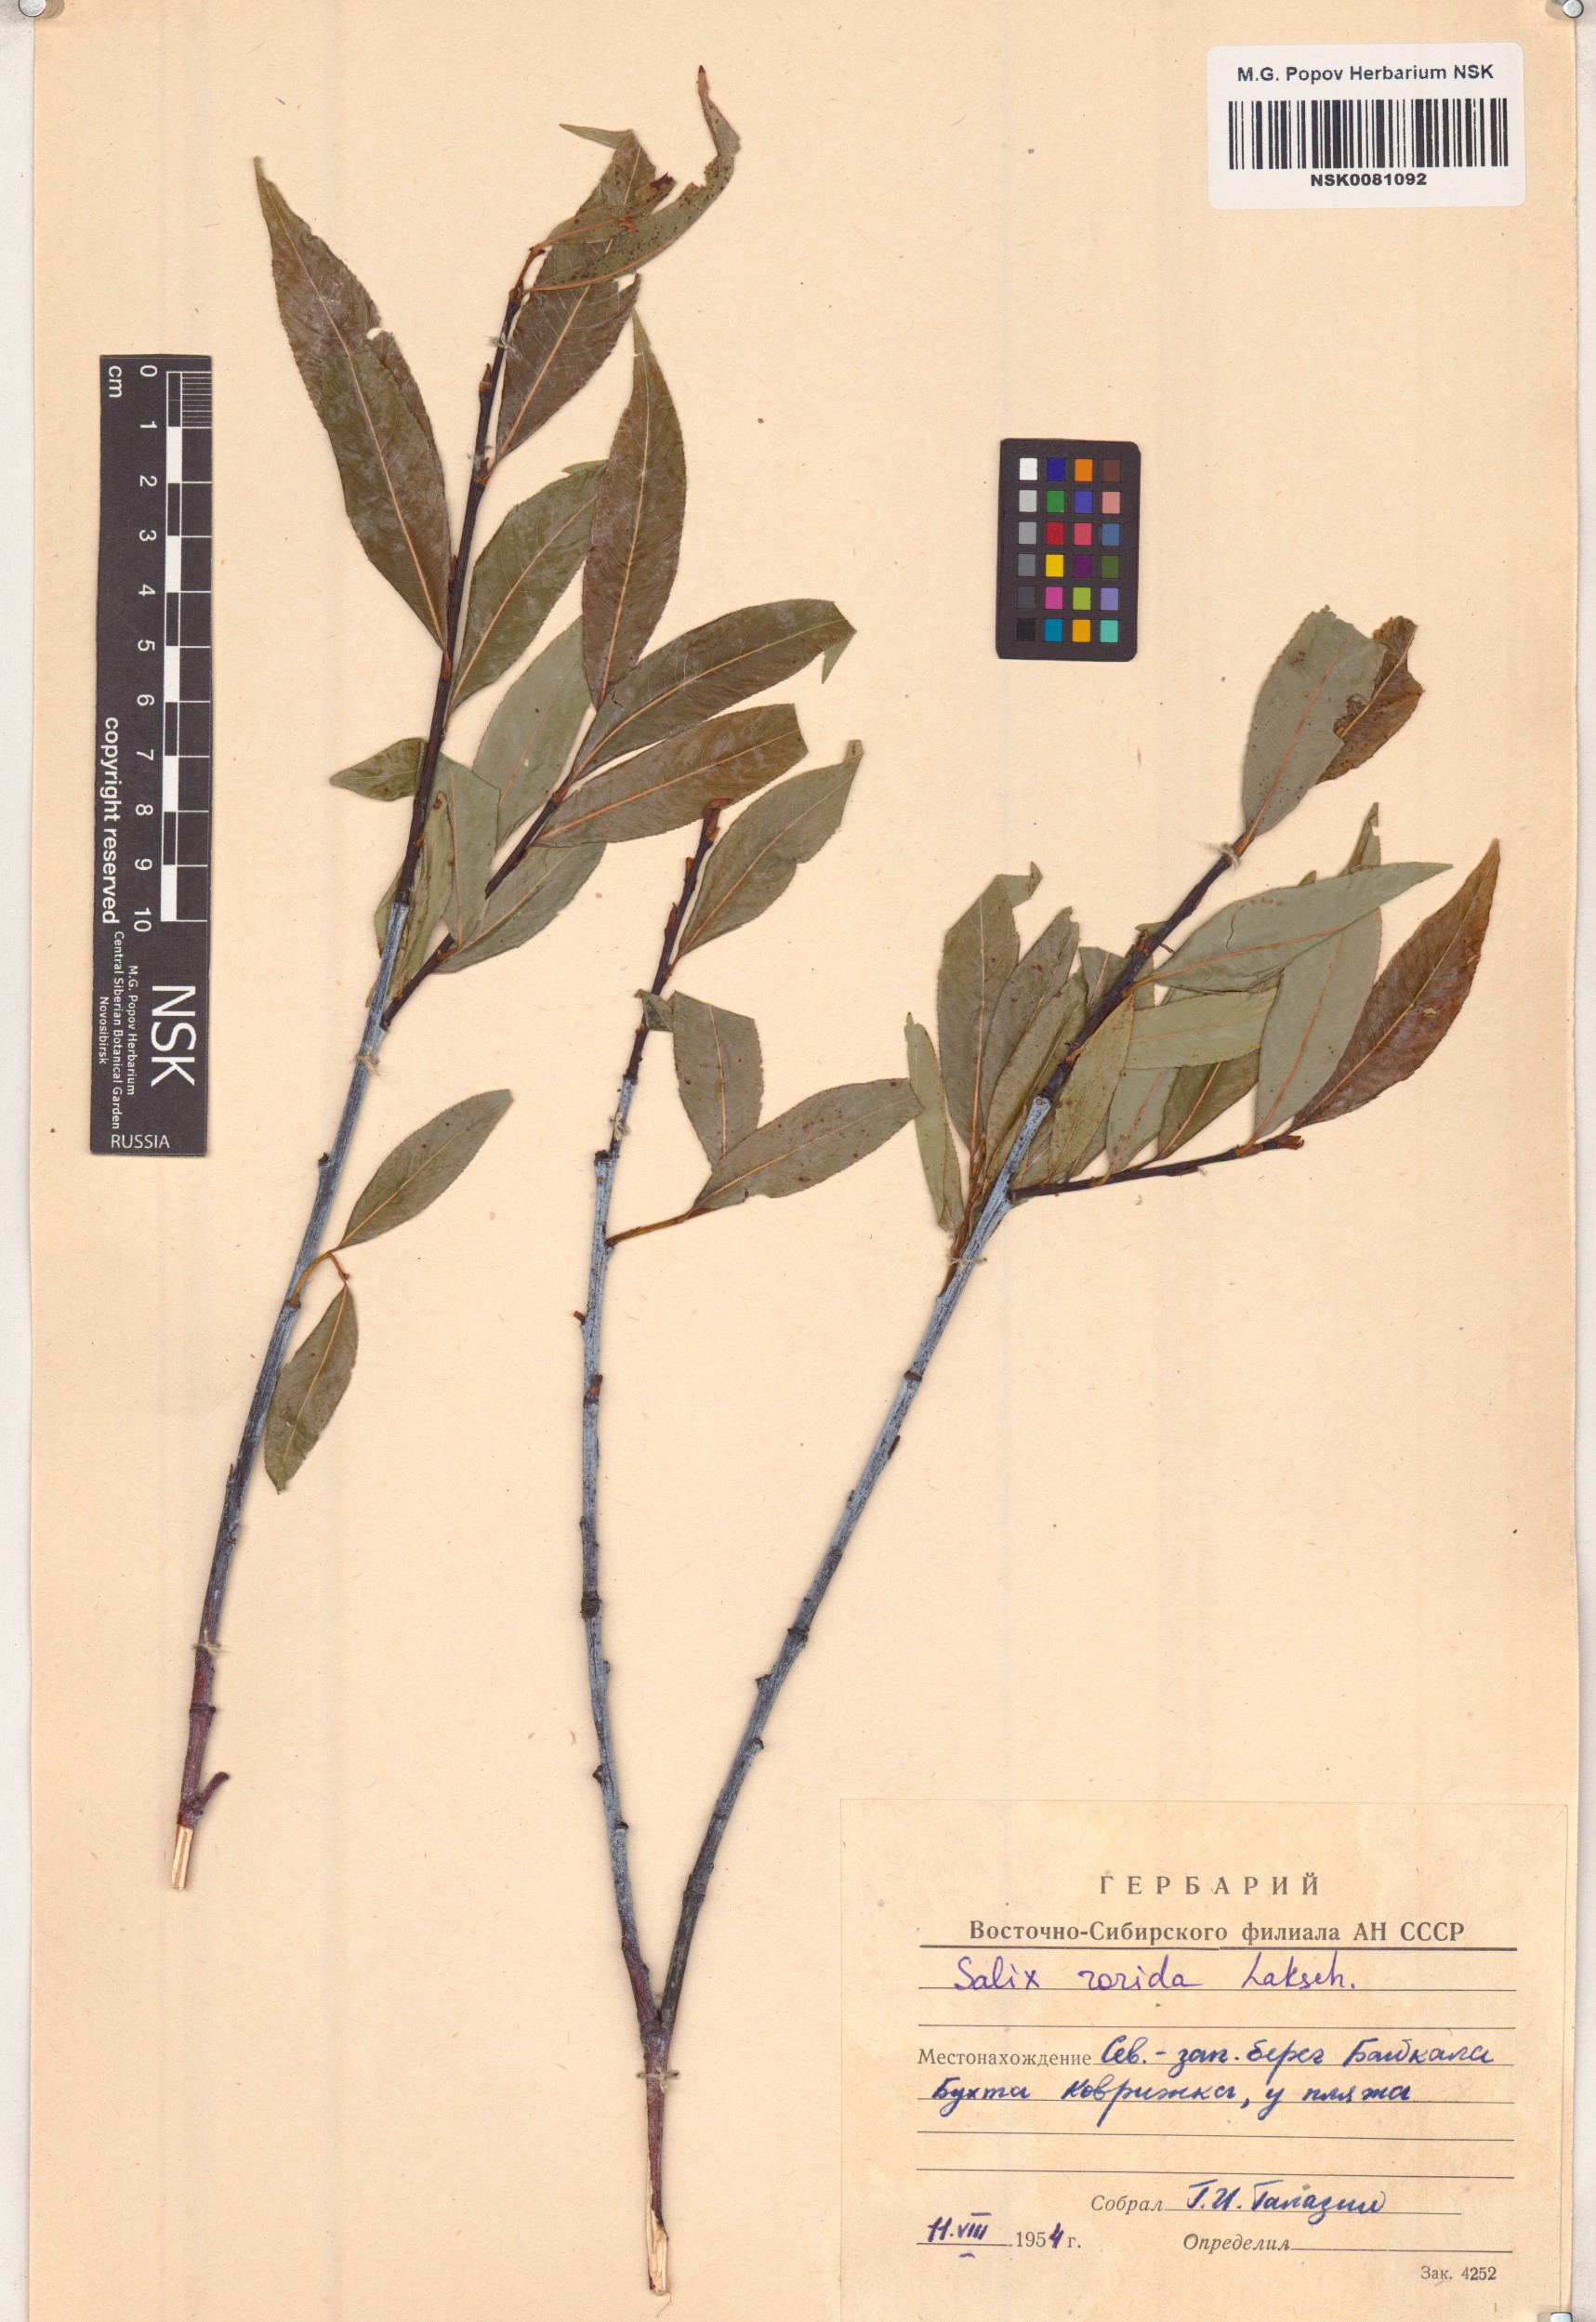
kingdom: Plantae
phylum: Tracheophyta
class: Magnoliopsida
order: Malpighiales
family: Salicaceae
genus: Salix
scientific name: Salix rorida
